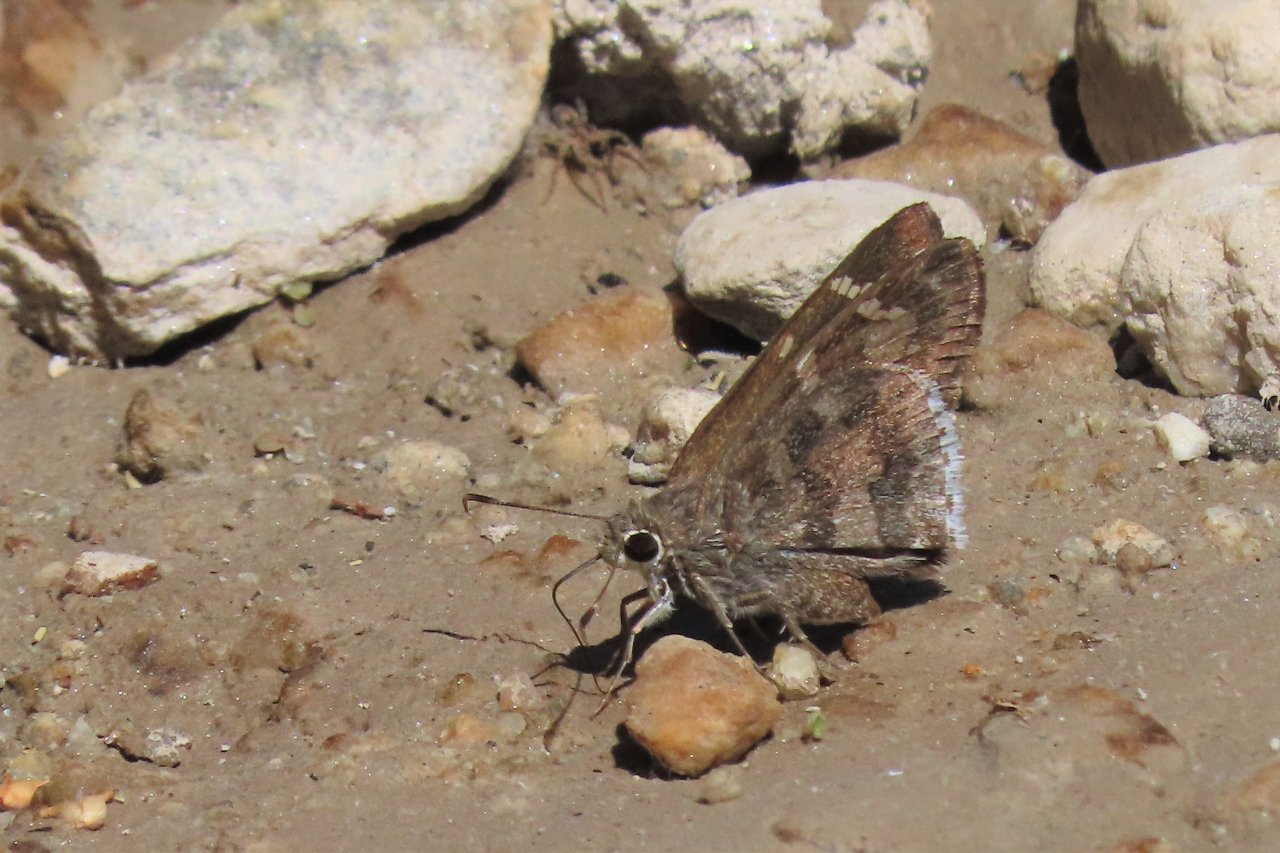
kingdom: Animalia
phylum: Arthropoda
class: Insecta
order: Lepidoptera
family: Hesperiidae
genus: Cogia
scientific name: Cogia hippalus
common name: Acacia Skipper
